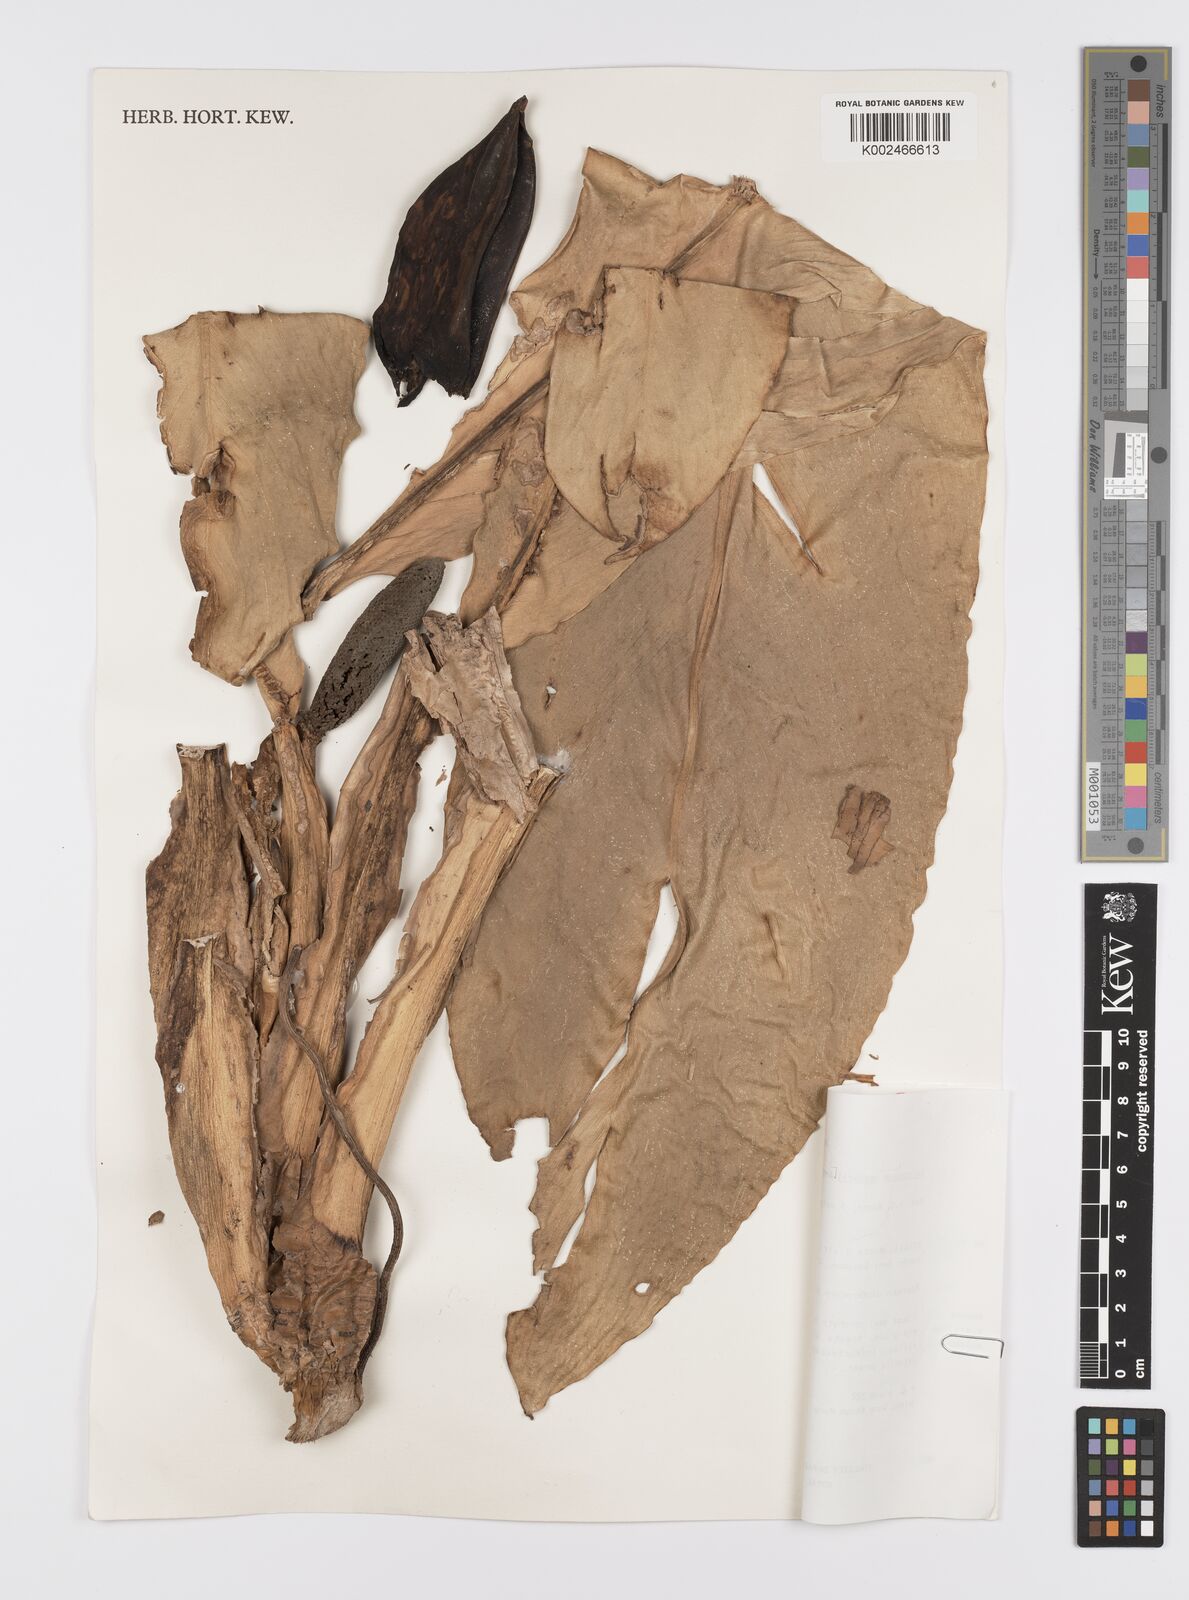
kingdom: Plantae
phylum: Tracheophyta
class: Liliopsida
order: Alismatales
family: Araceae
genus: Scindapsus
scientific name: Scindapsus crassipes
